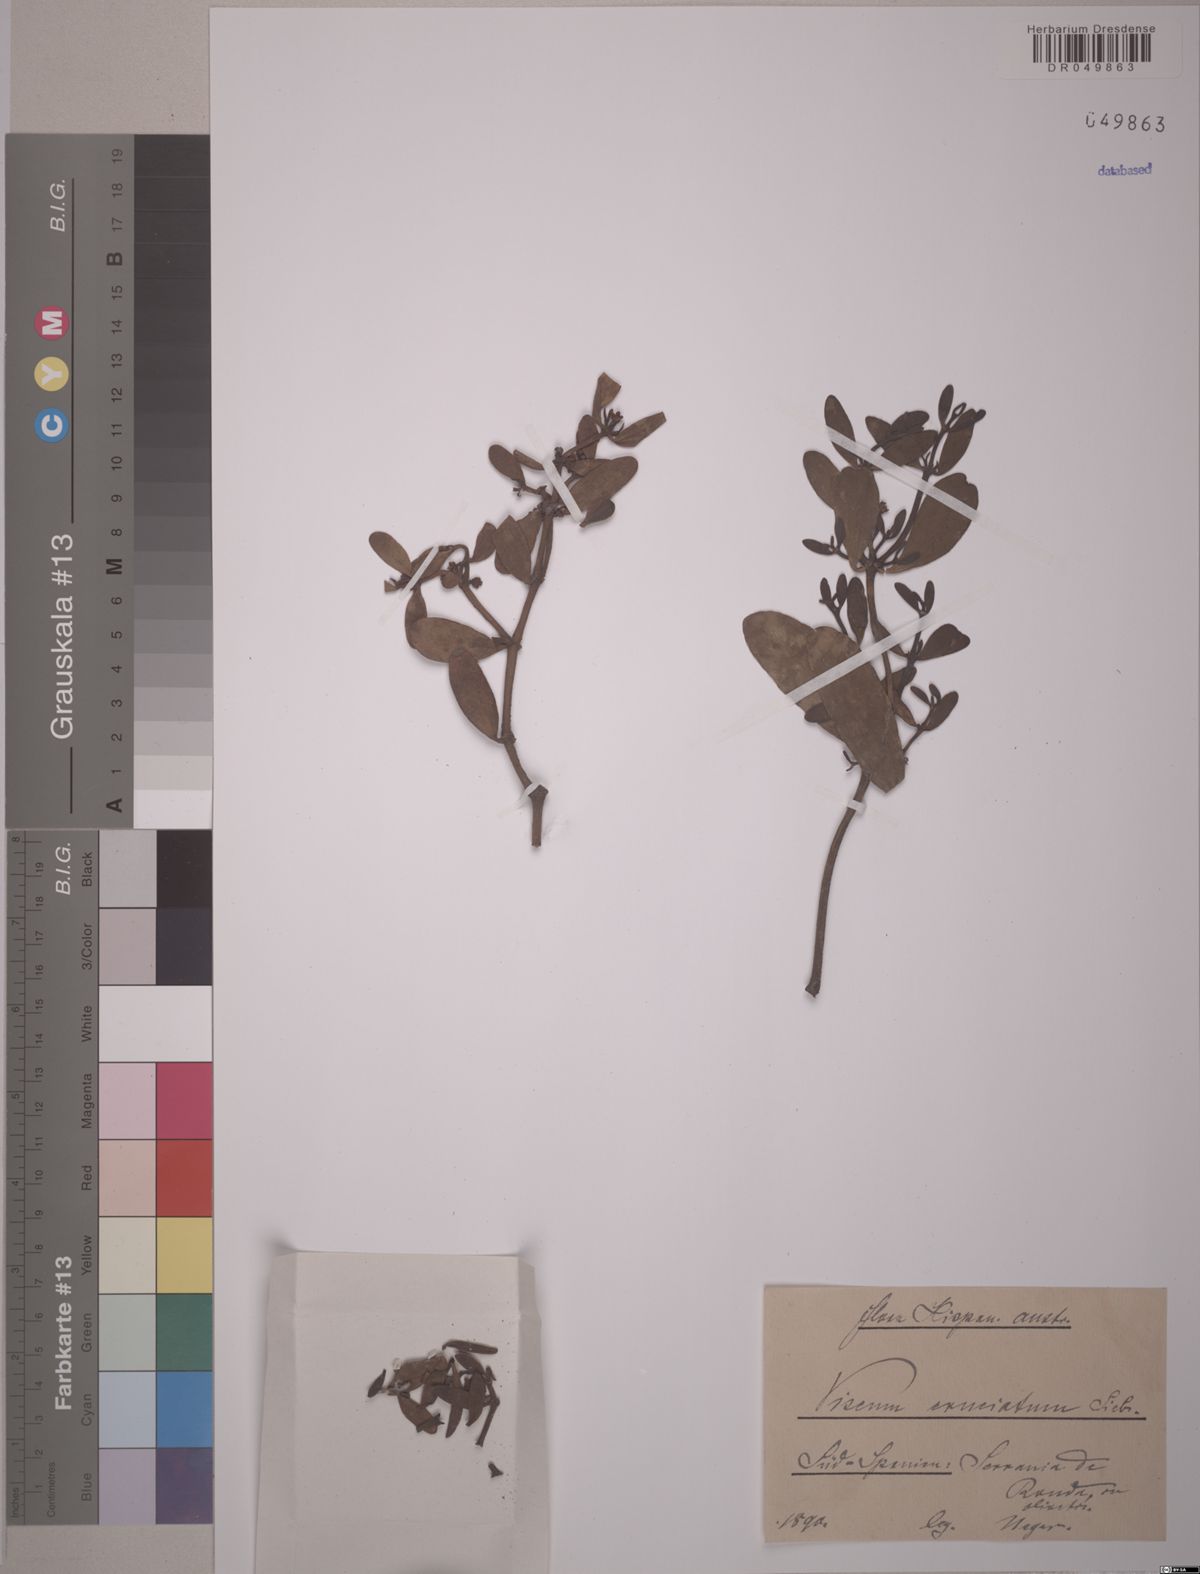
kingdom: Plantae
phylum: Tracheophyta
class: Magnoliopsida
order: Santalales
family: Viscaceae
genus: Viscum
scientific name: Viscum cruciatum
